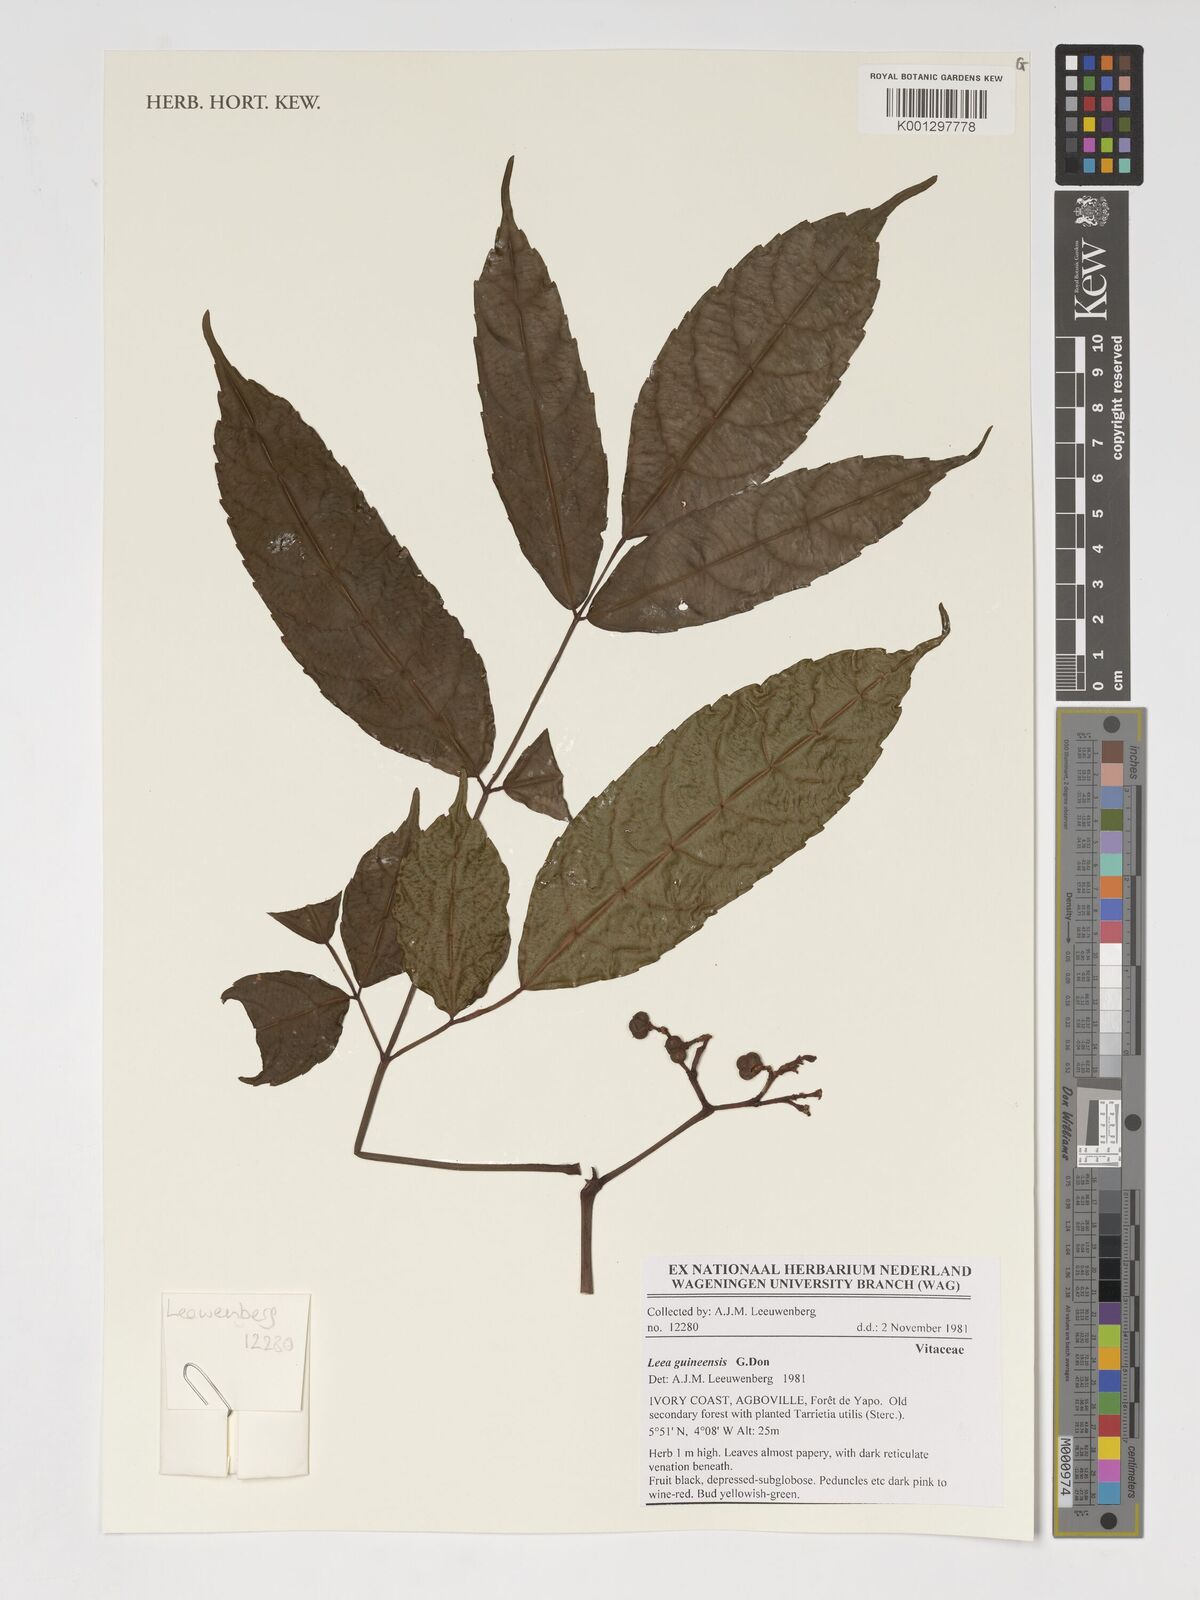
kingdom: Plantae
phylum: Tracheophyta
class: Magnoliopsida
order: Vitales
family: Vitaceae
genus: Leea
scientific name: Leea guineensis
